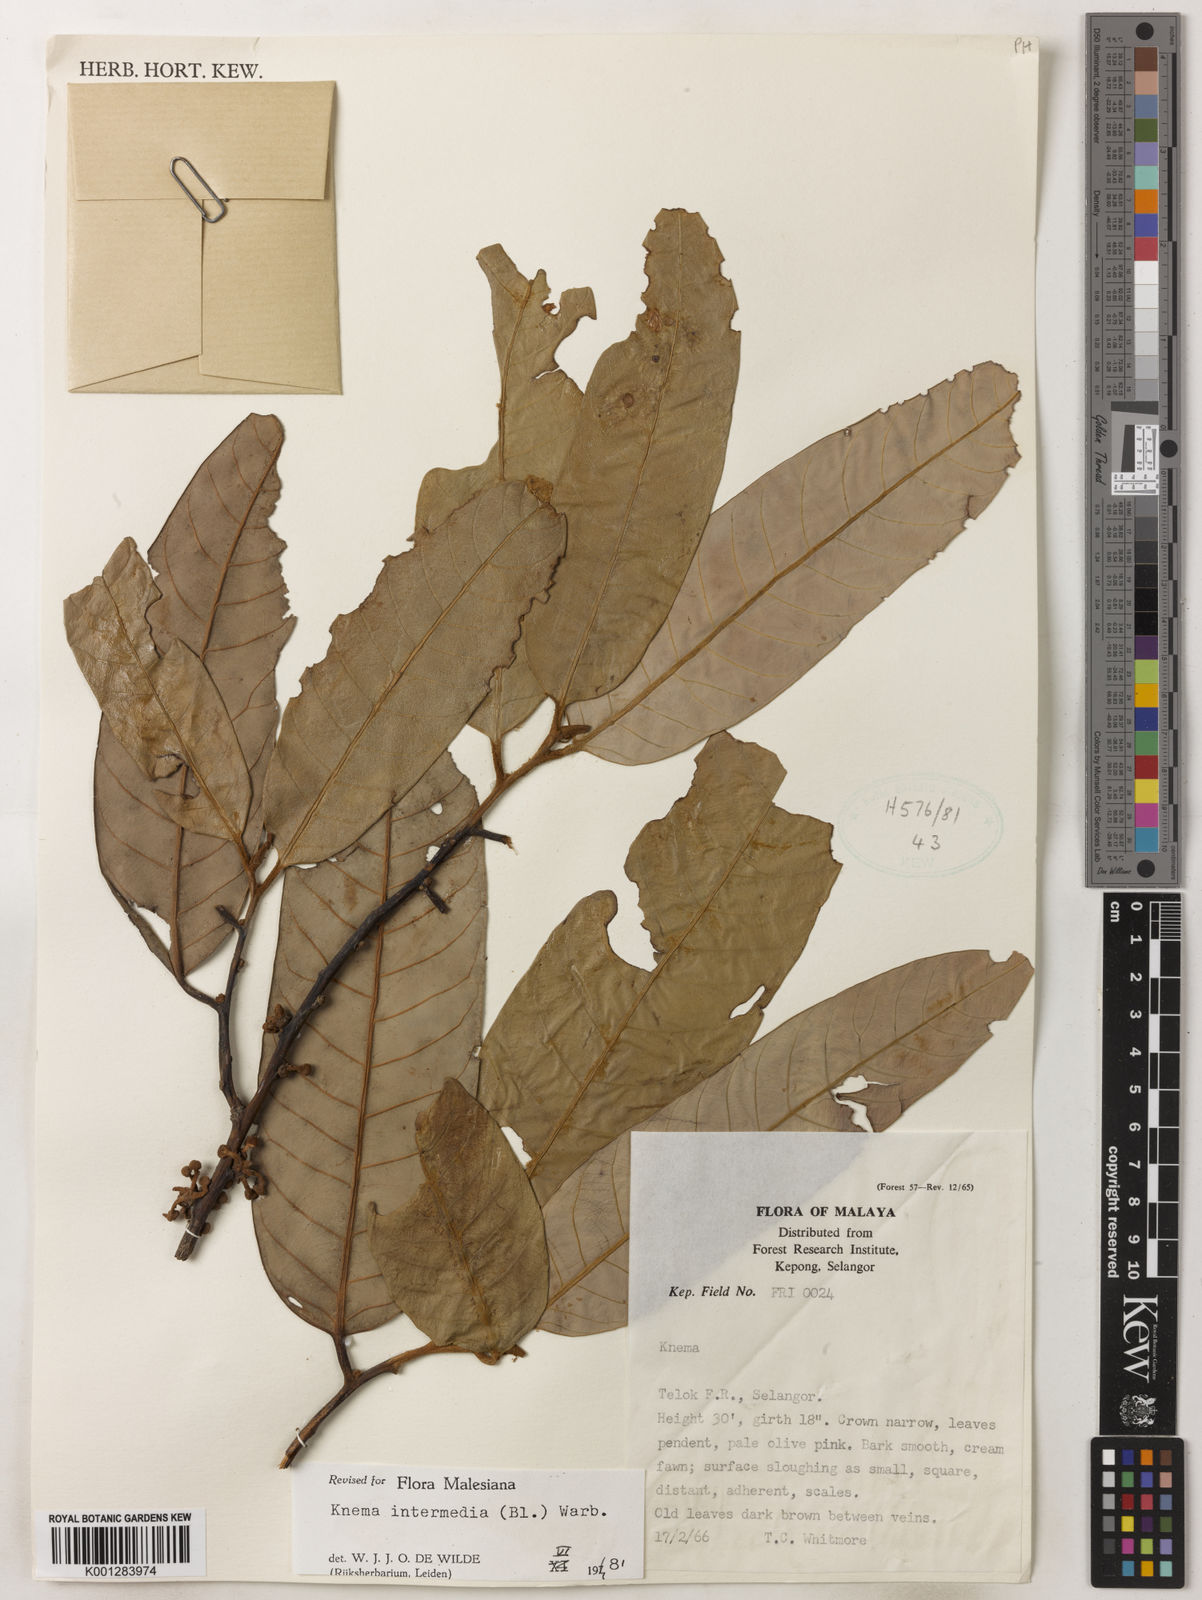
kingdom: Plantae
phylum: Tracheophyta
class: Magnoliopsida
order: Magnoliales
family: Myristicaceae
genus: Knema
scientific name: Knema intermedia
